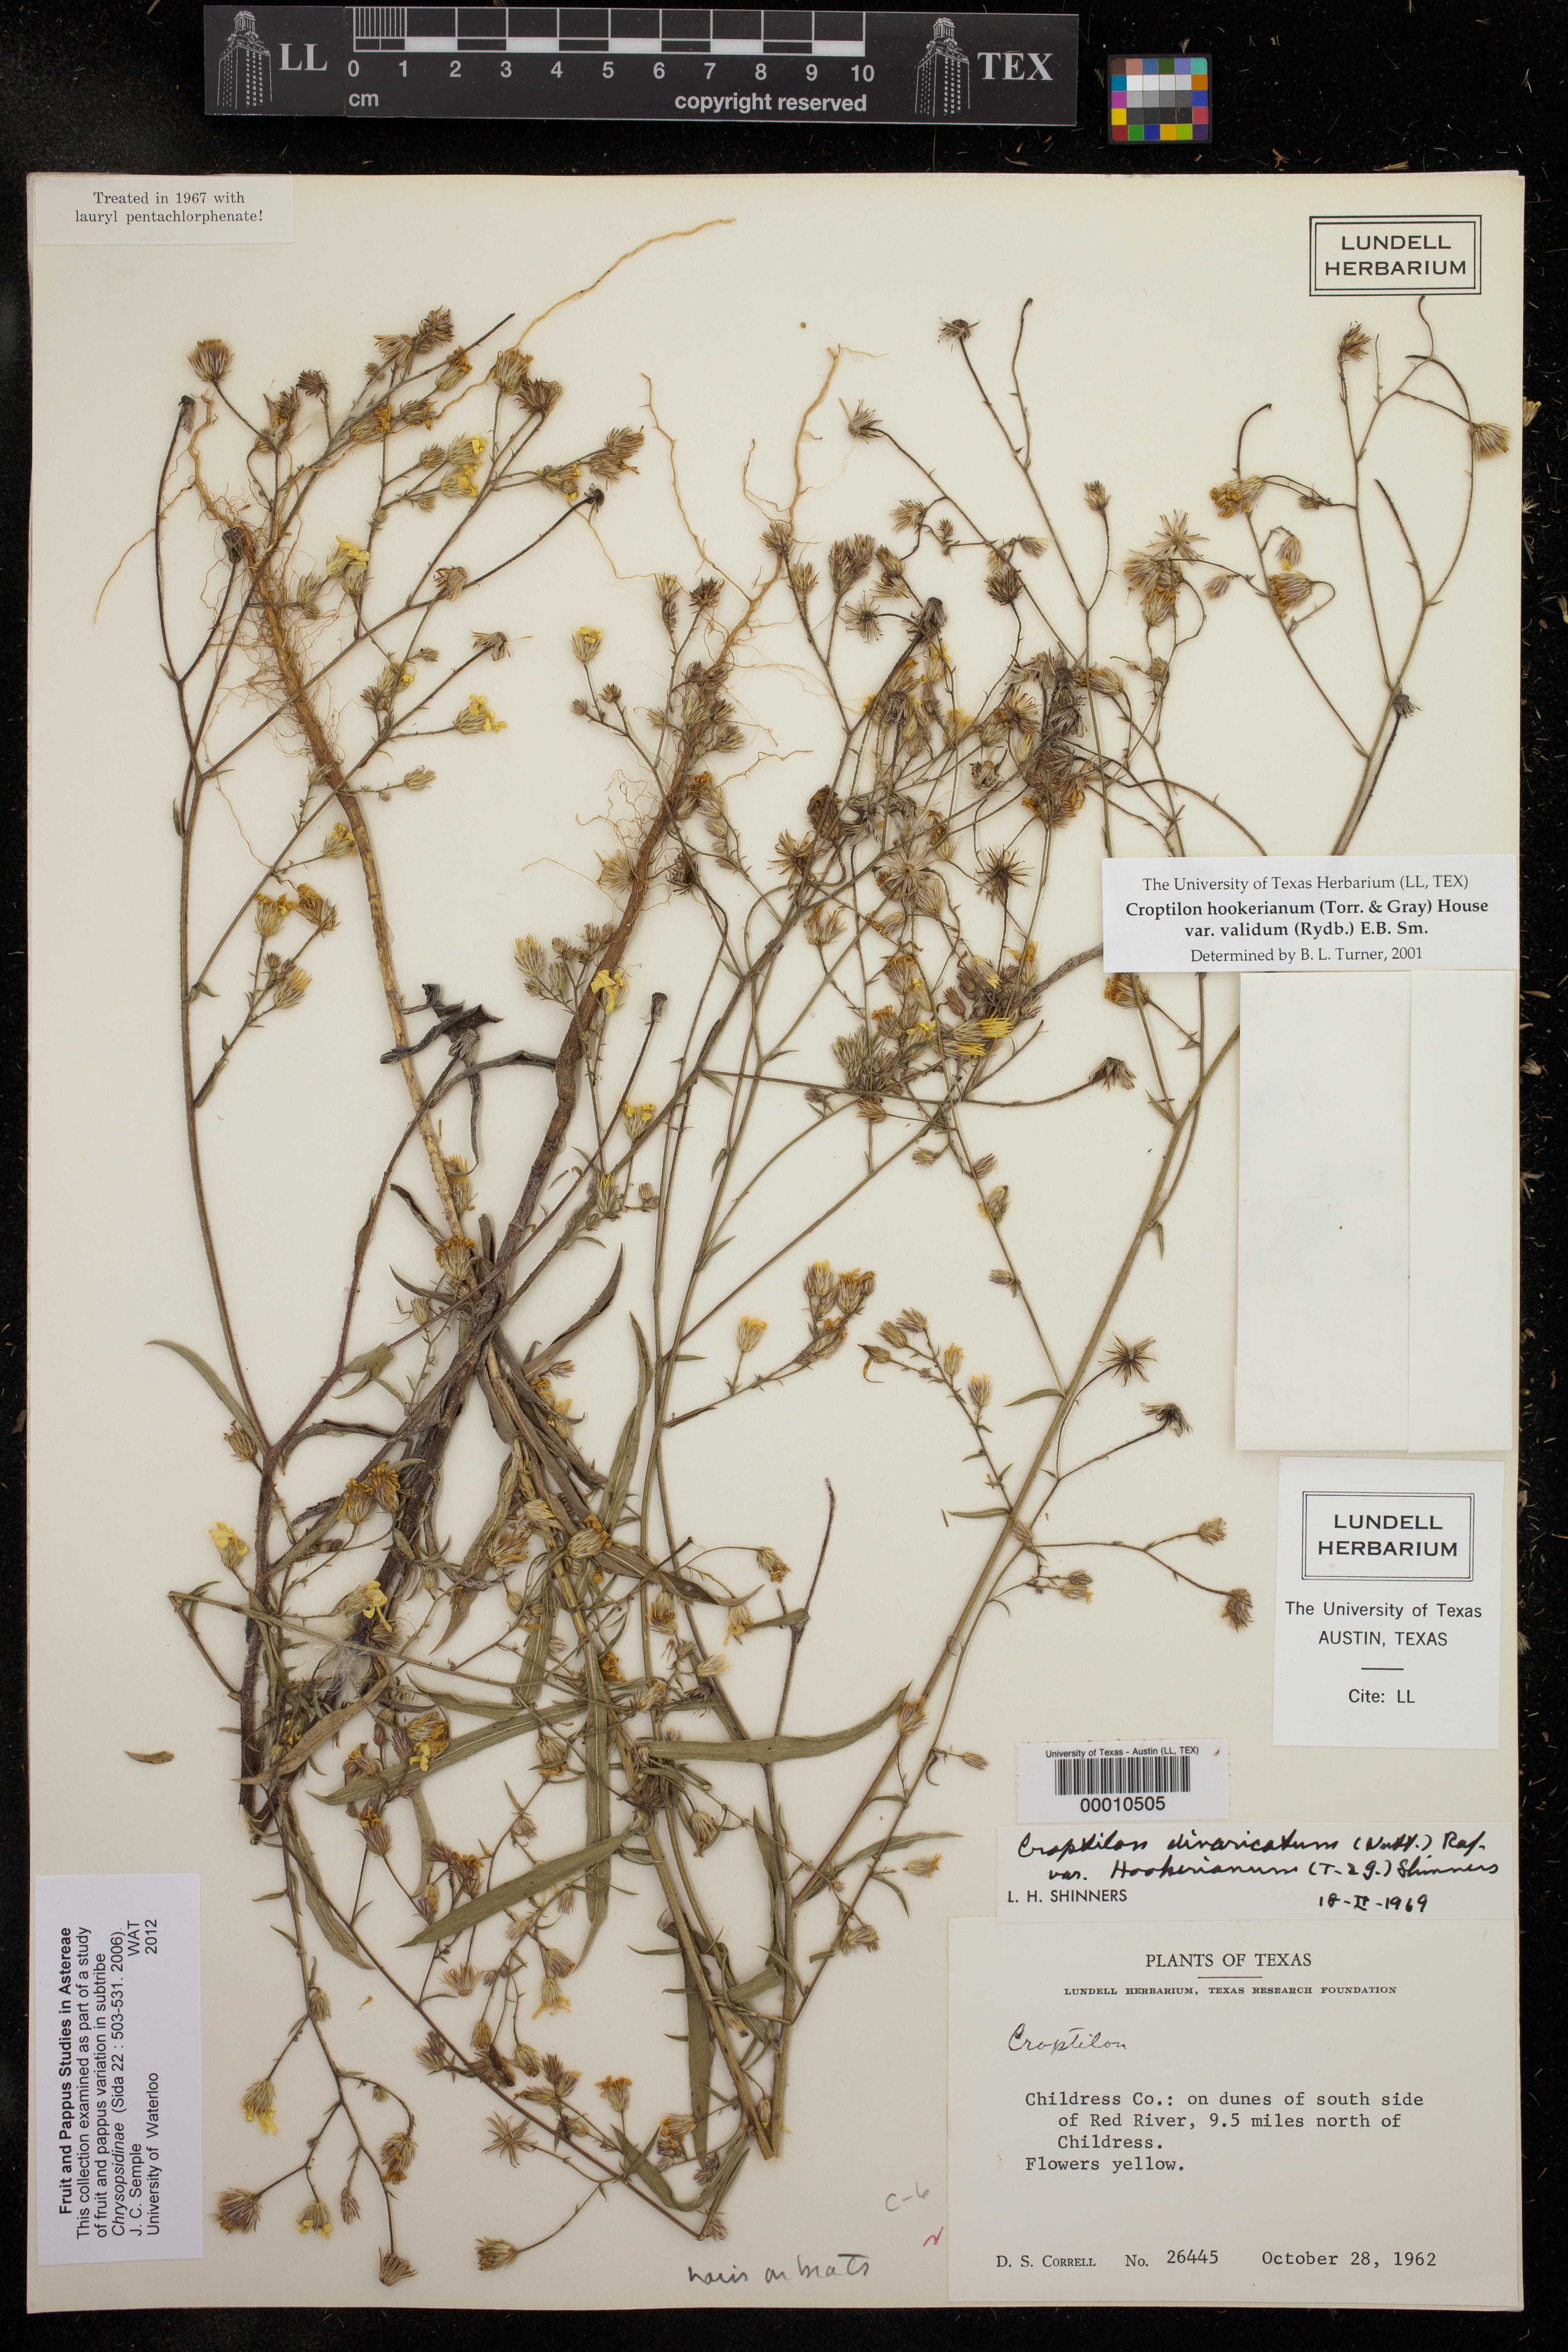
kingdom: Plantae
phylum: Tracheophyta
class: Magnoliopsida
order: Asterales
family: Asteraceae
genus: Croptilon
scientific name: Croptilon hookerianum
